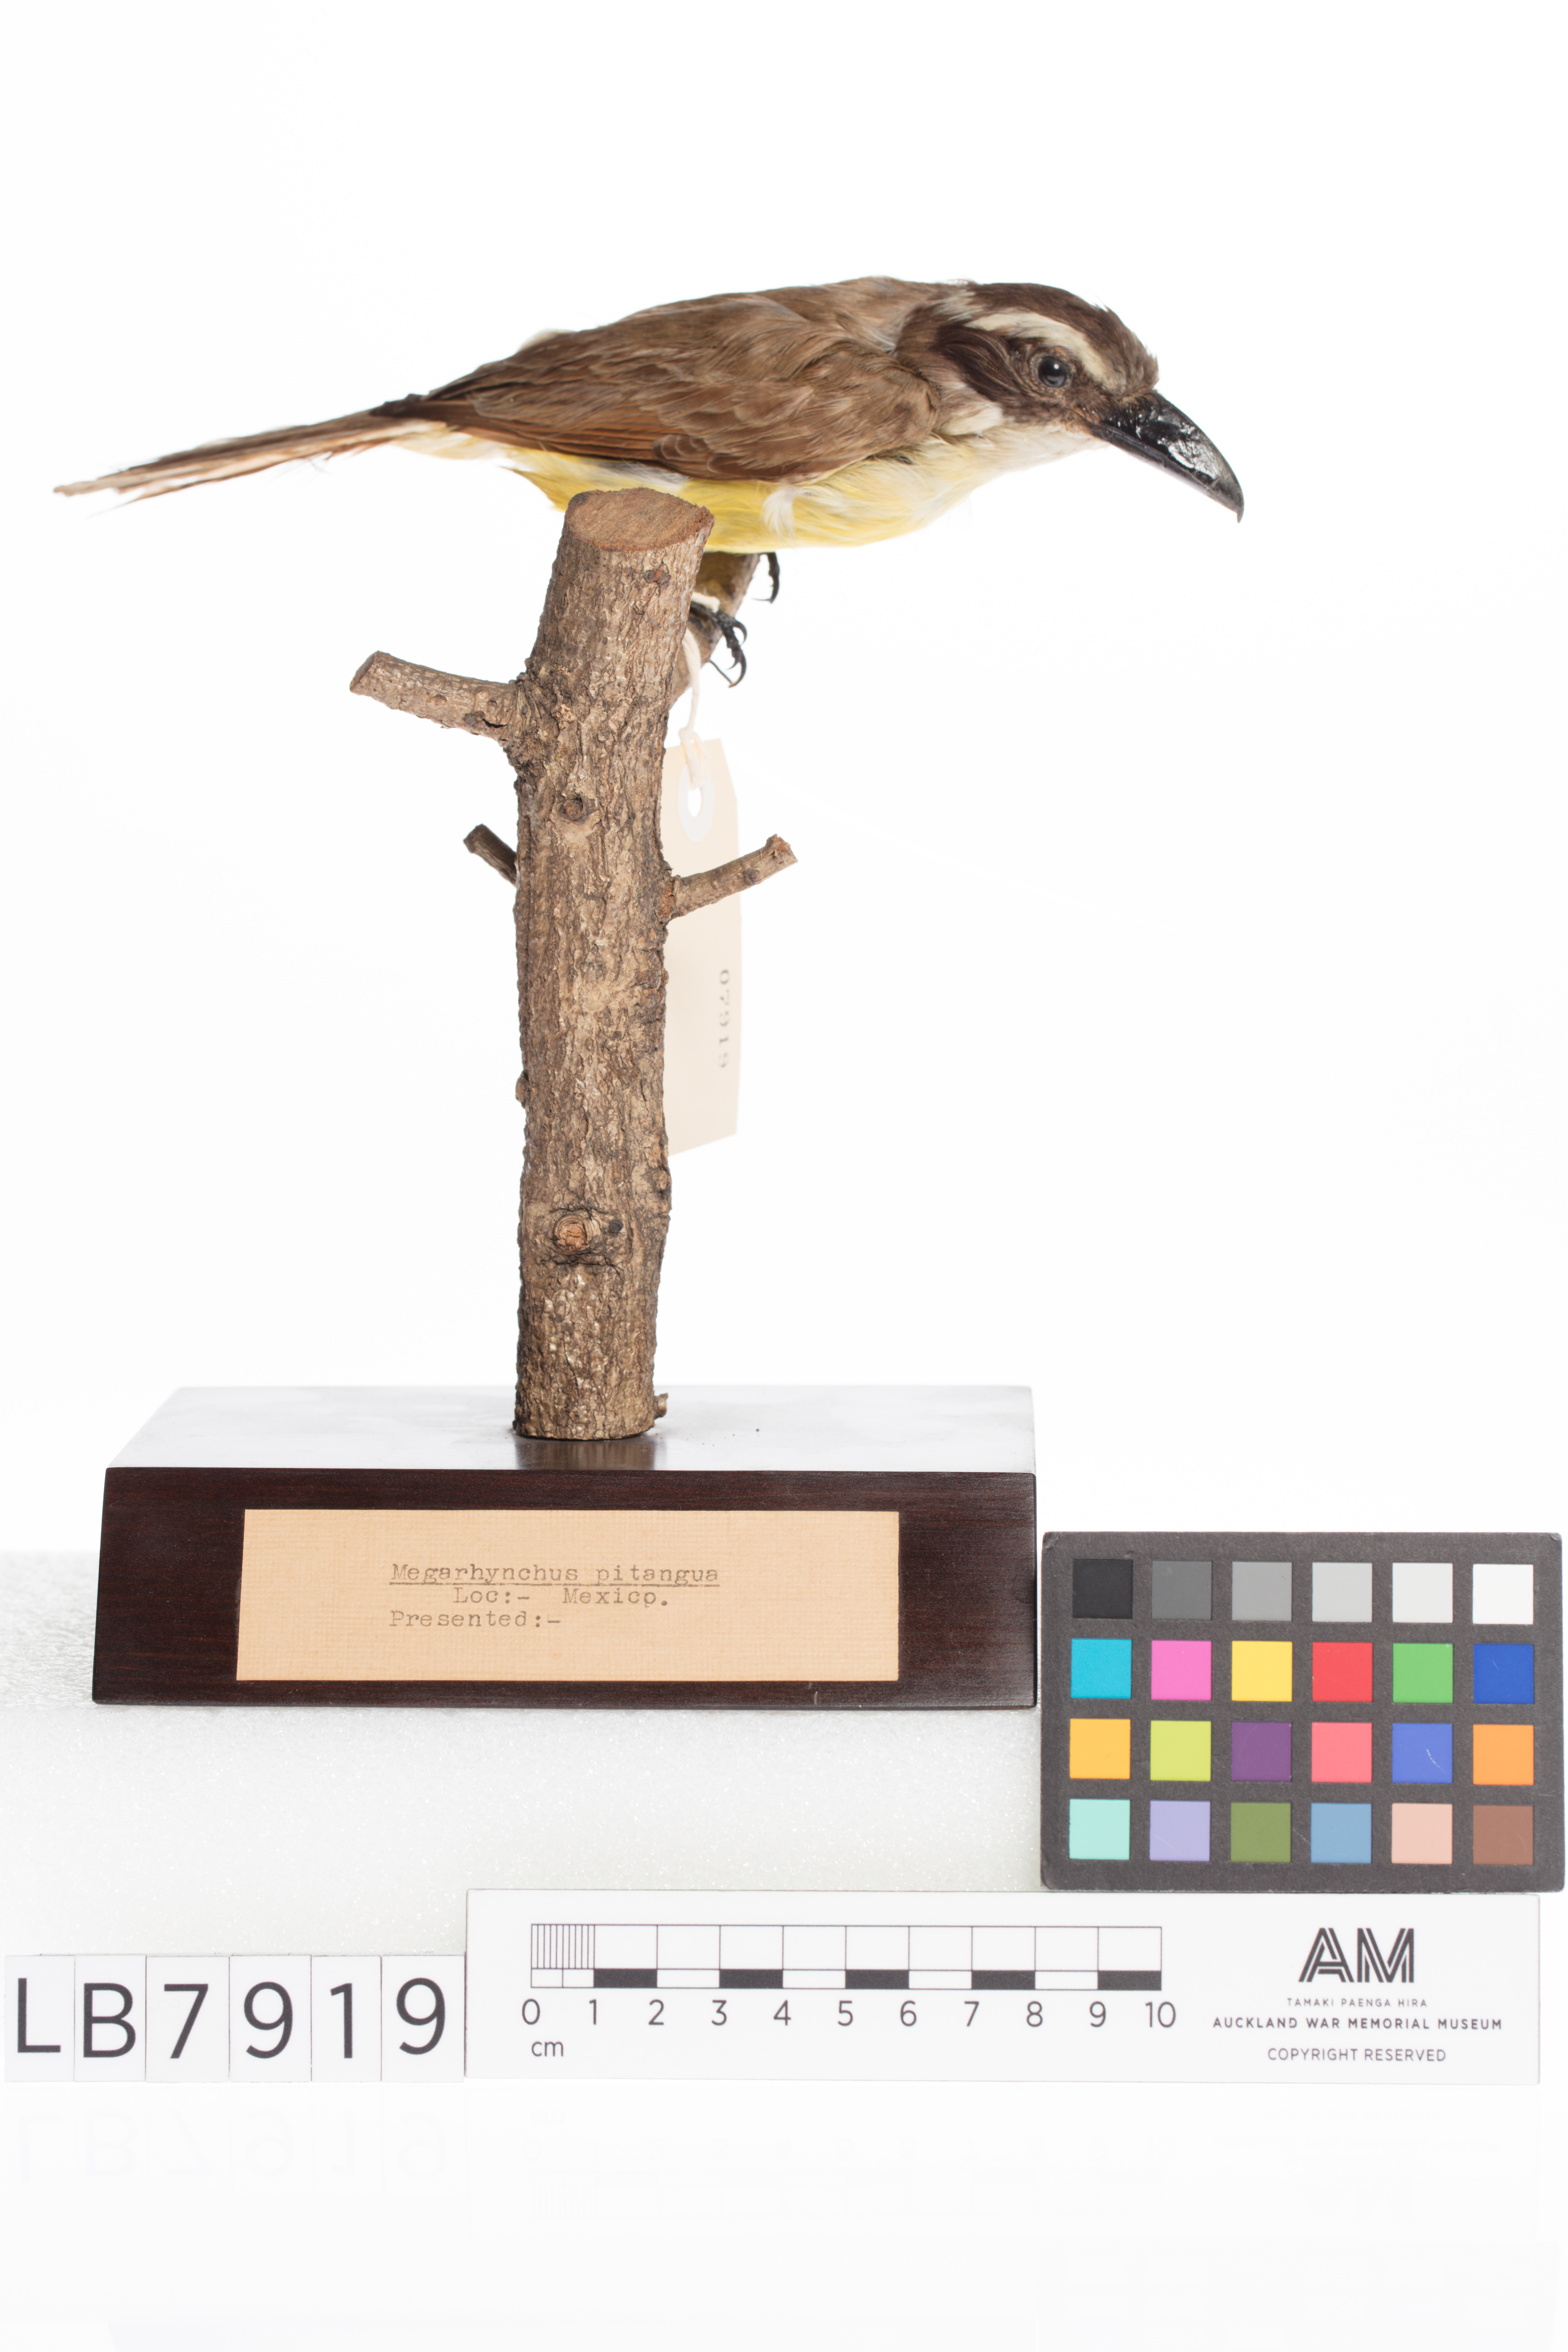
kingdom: Animalia
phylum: Chordata
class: Aves
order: Passeriformes
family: Tyrannidae
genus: Megarynchus
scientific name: Megarynchus pitangua
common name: Boat-billed flycatcher
